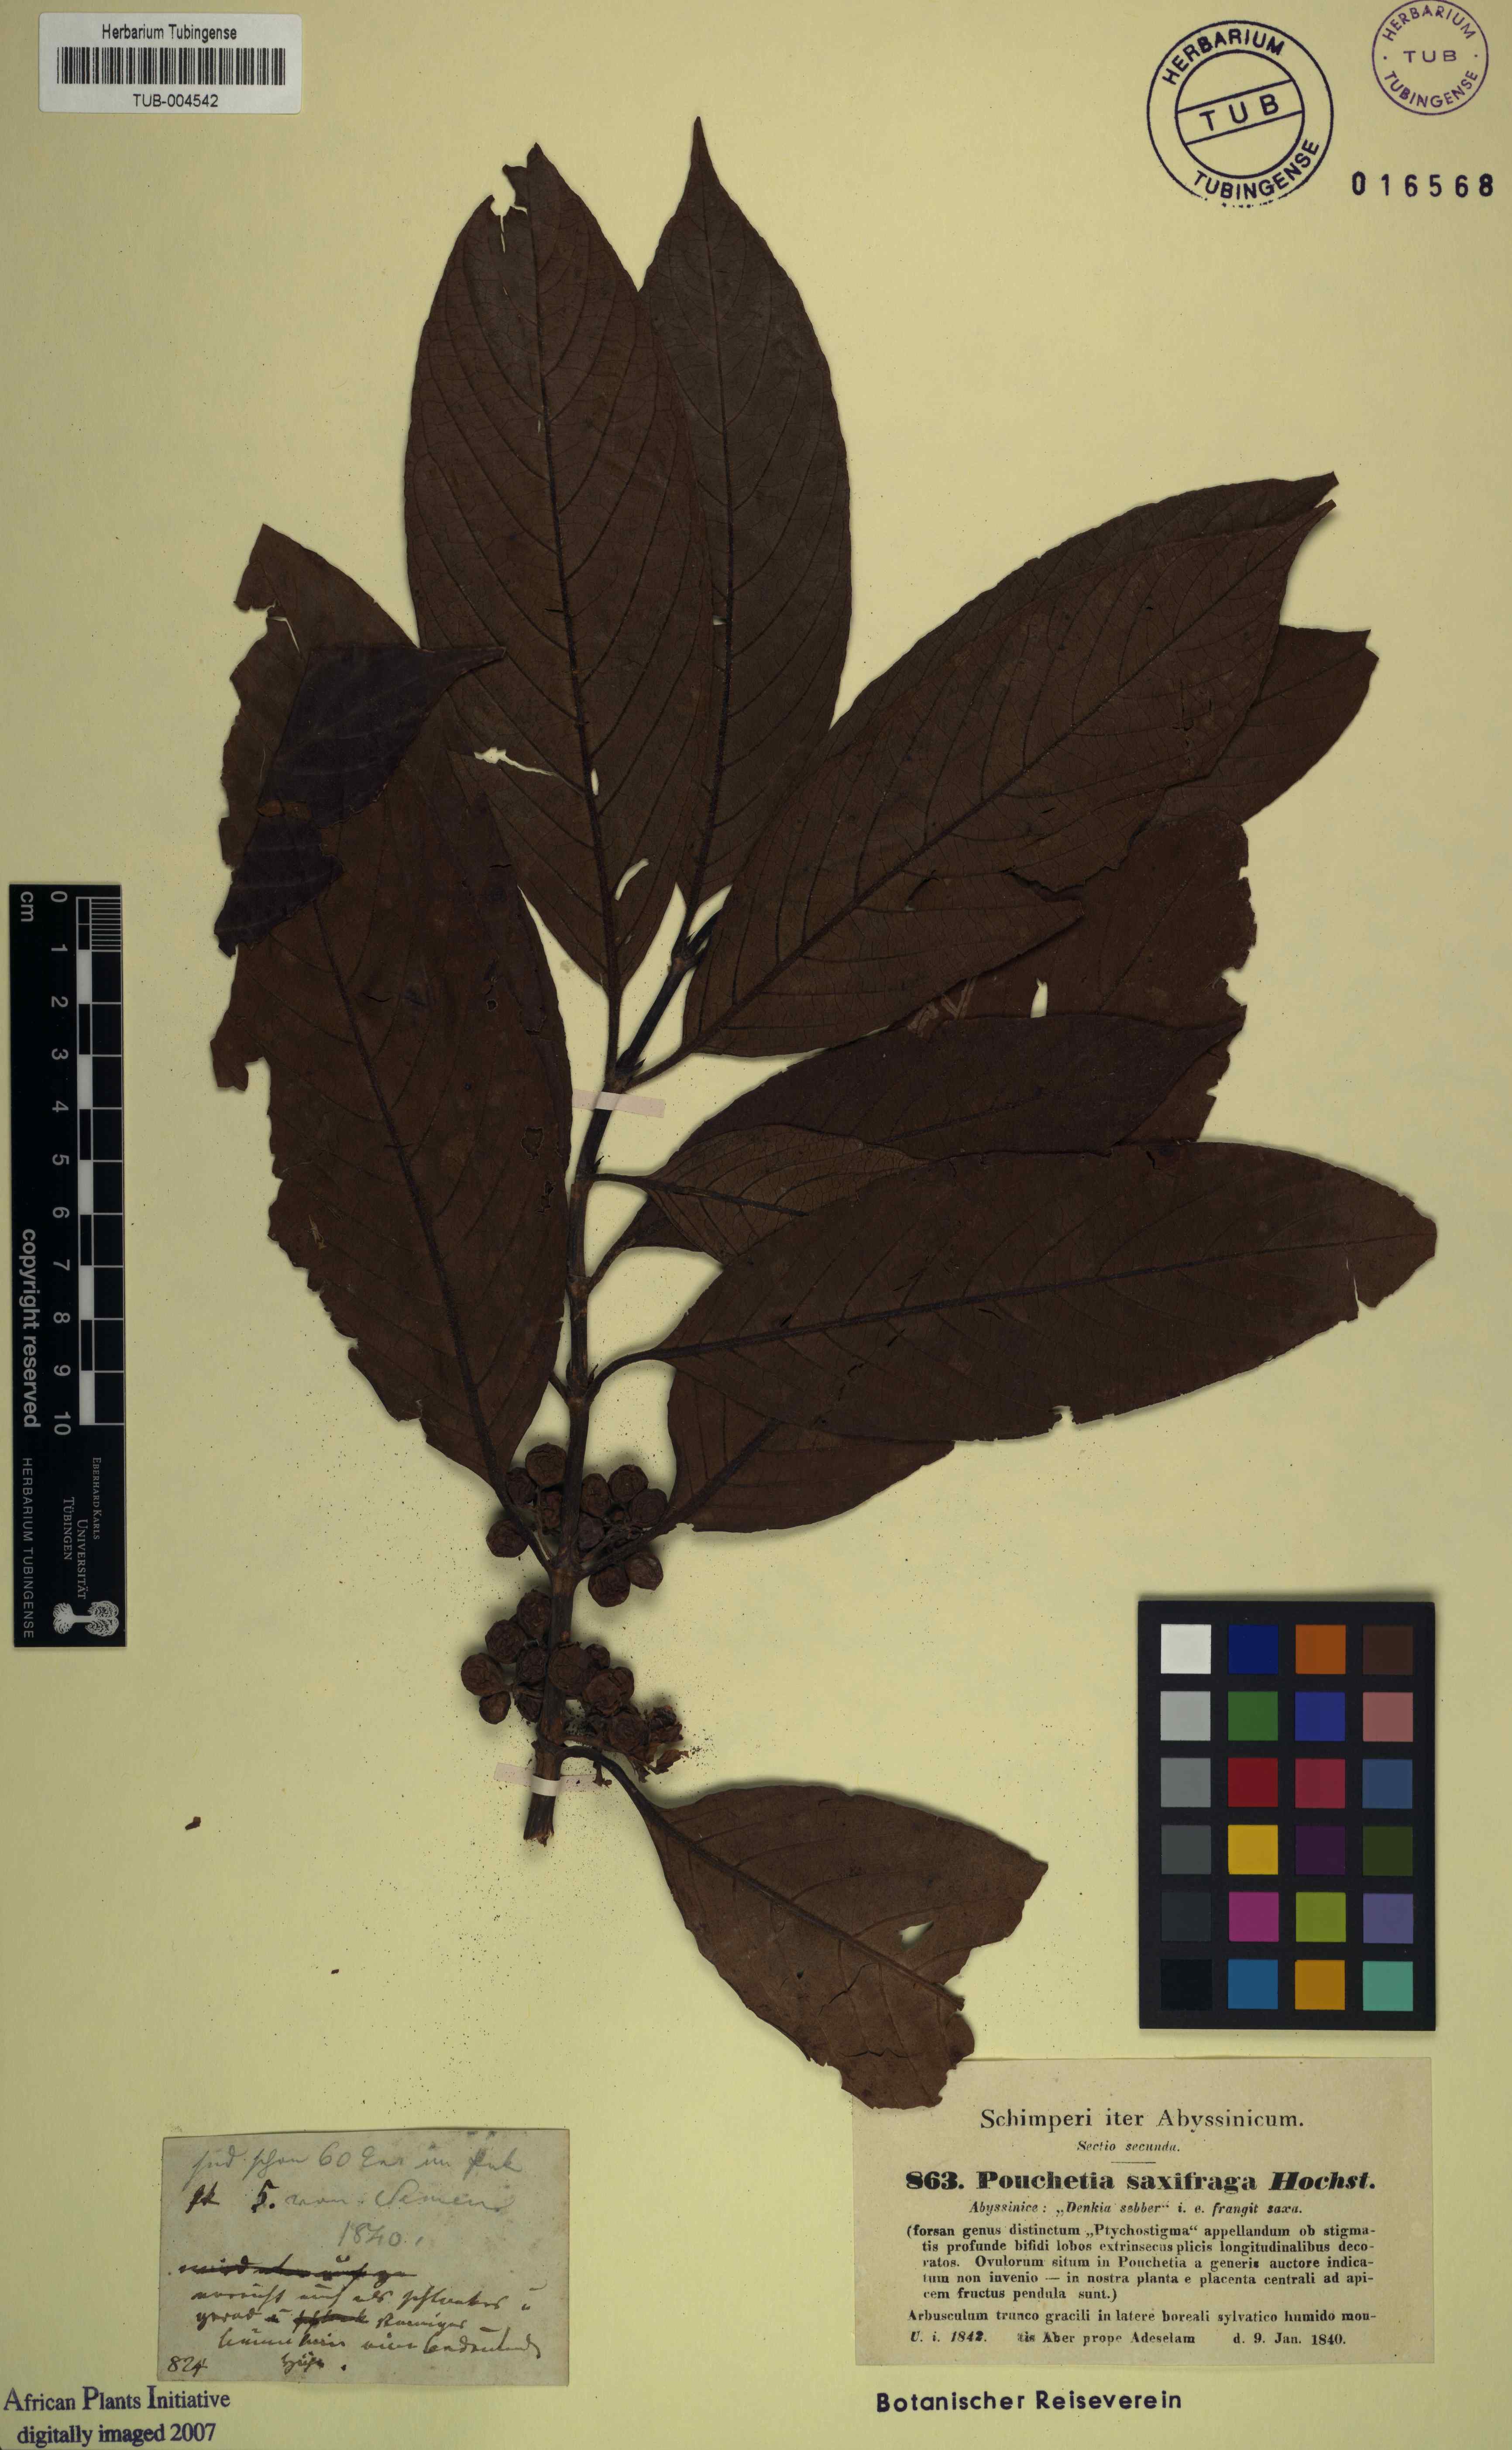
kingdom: Plantae
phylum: Tracheophyta
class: Magnoliopsida
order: Gentianales
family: Rubiaceae
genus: Galiniera
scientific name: Galiniera saxifraga
